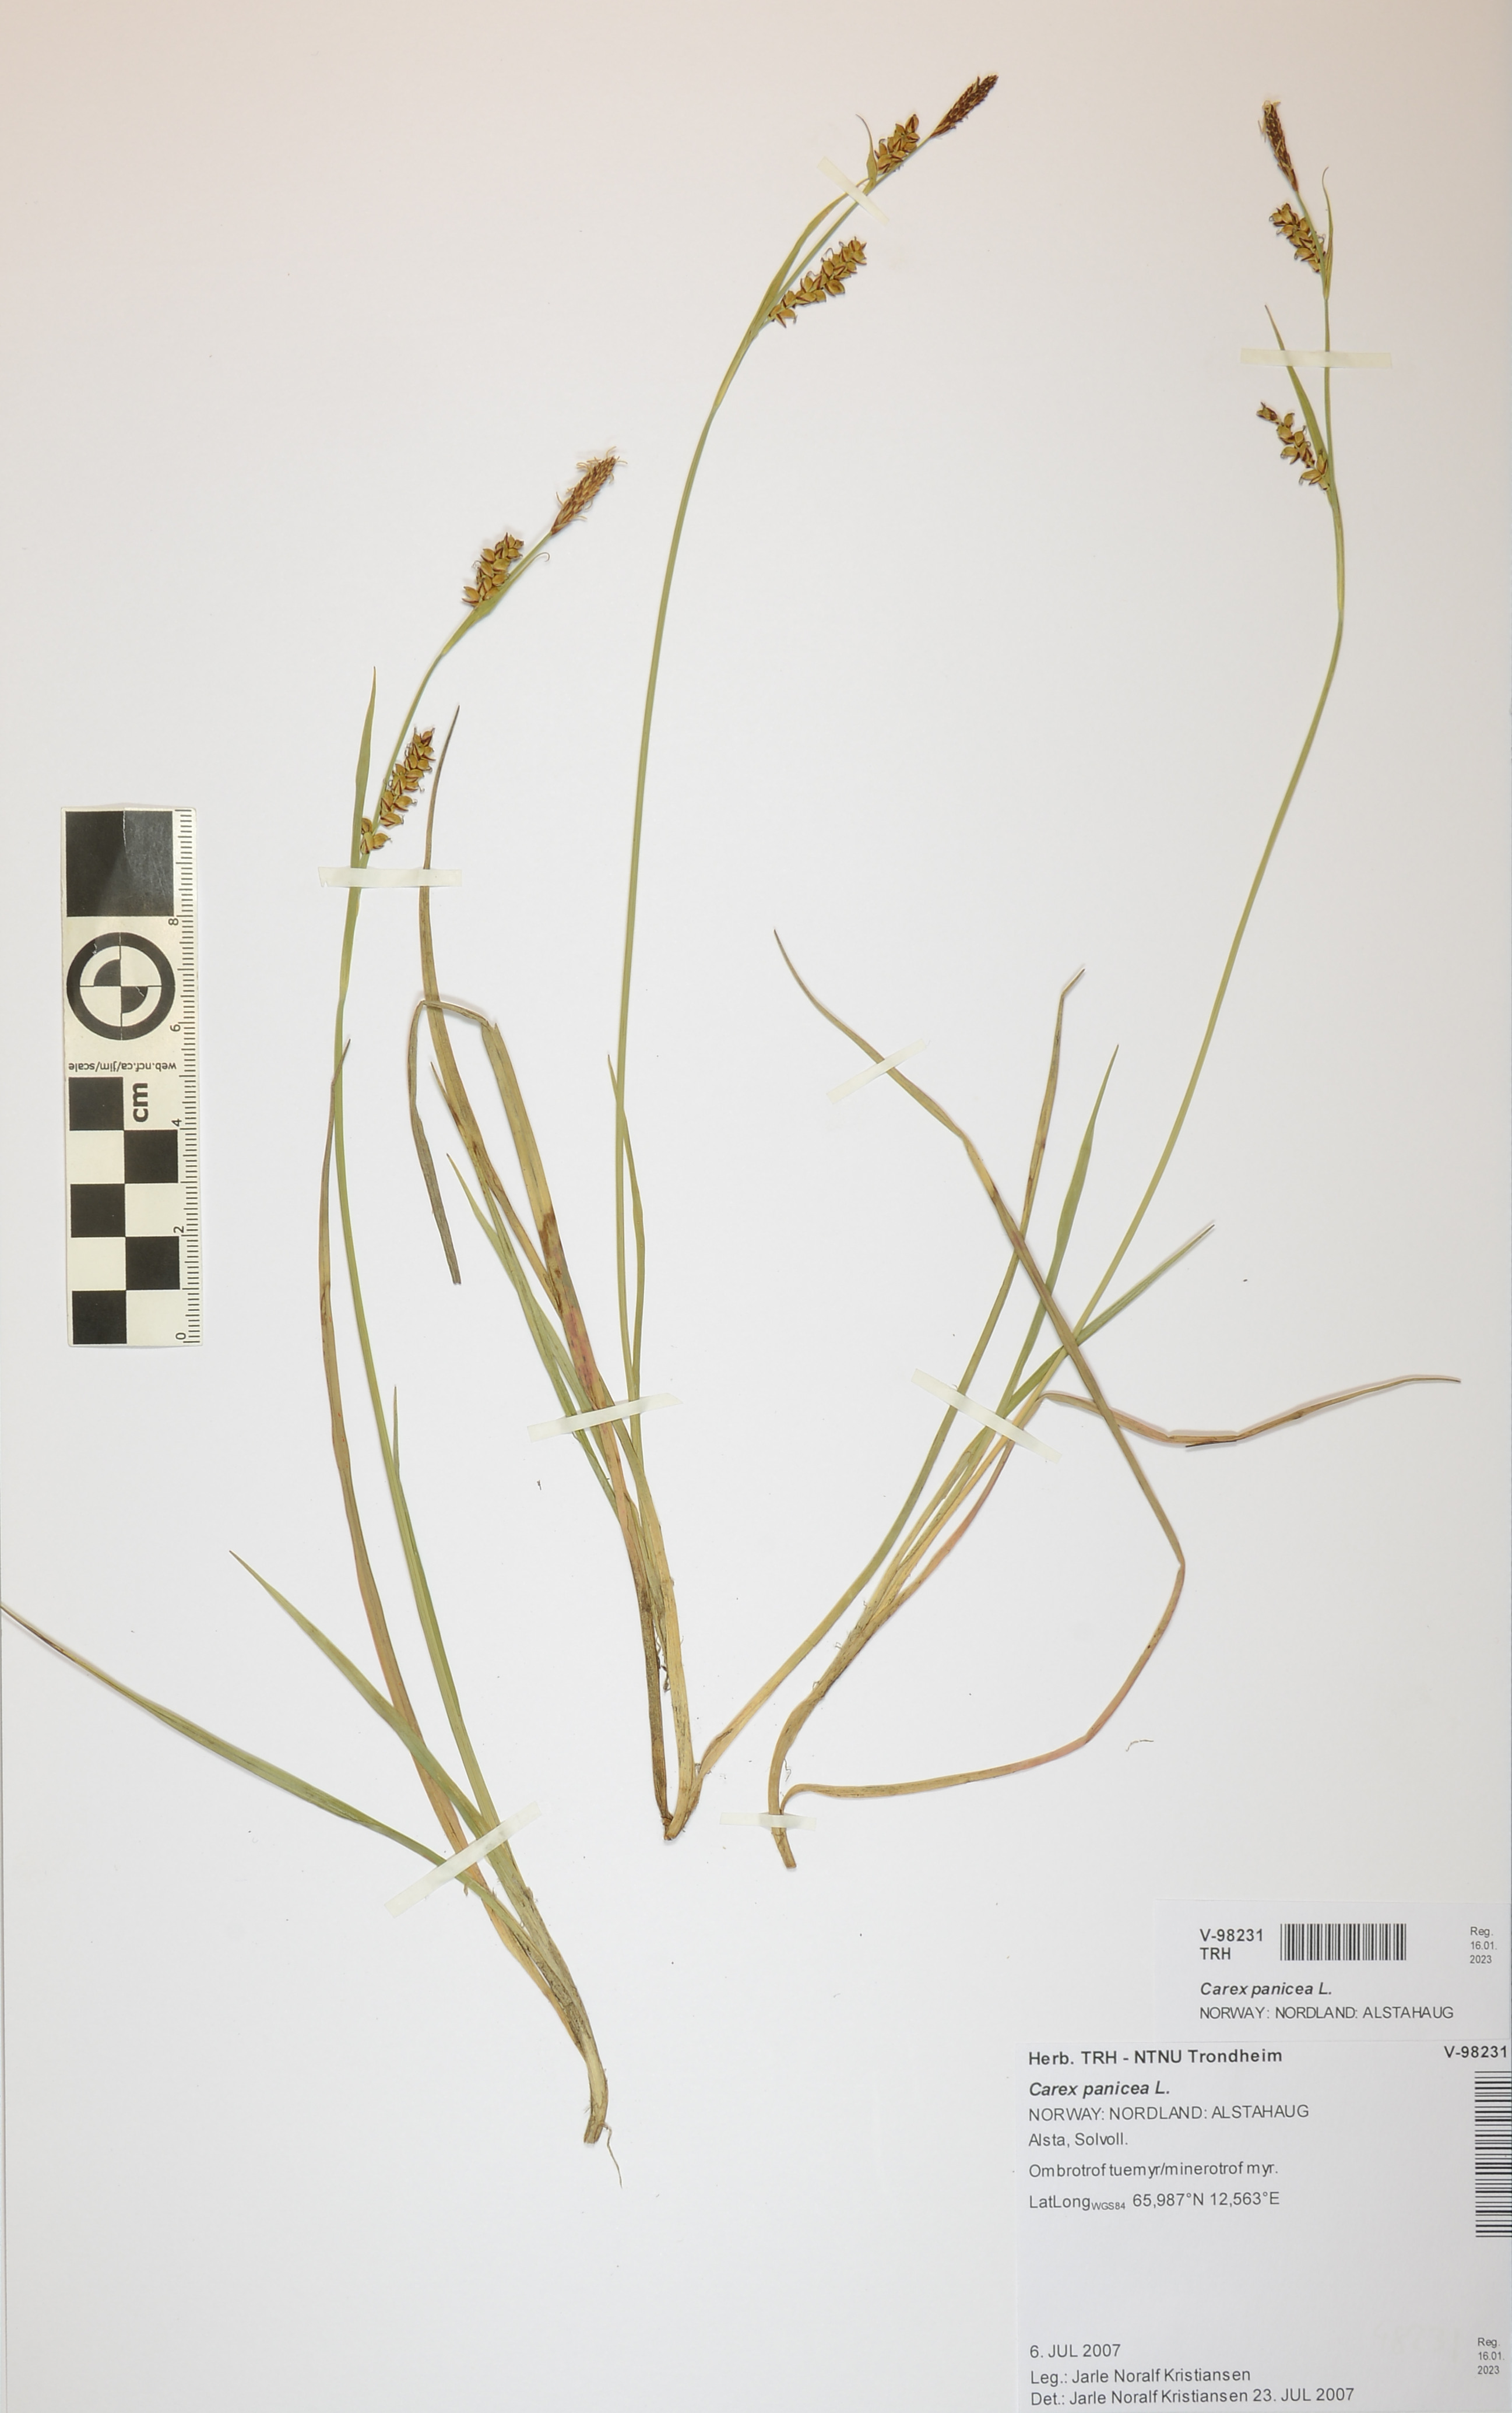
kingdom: Plantae
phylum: Tracheophyta
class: Liliopsida
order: Poales
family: Cyperaceae
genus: Carex
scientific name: Carex panicea
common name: Carnation sedge
